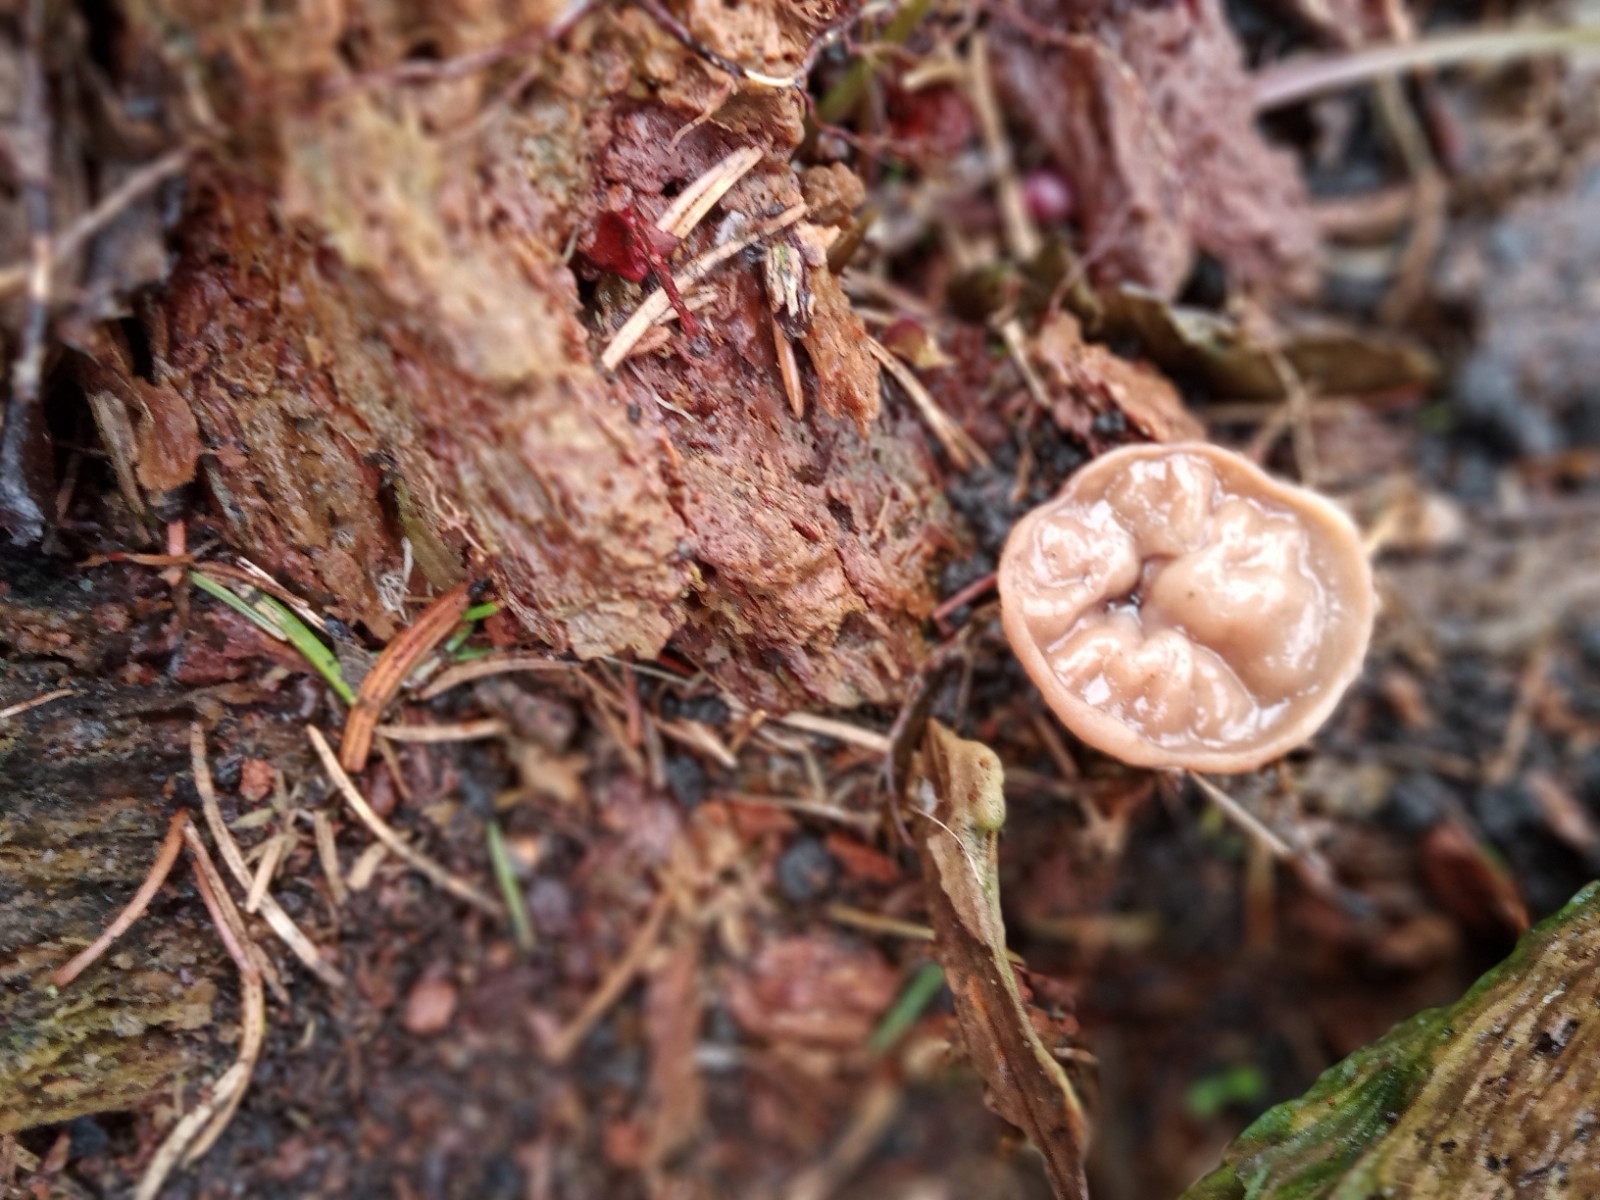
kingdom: Fungi
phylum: Ascomycota
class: Pezizomycetes
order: Pezizales
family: Discinaceae
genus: Discina
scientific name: Discina ancilis
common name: udbredt stenmorkel
